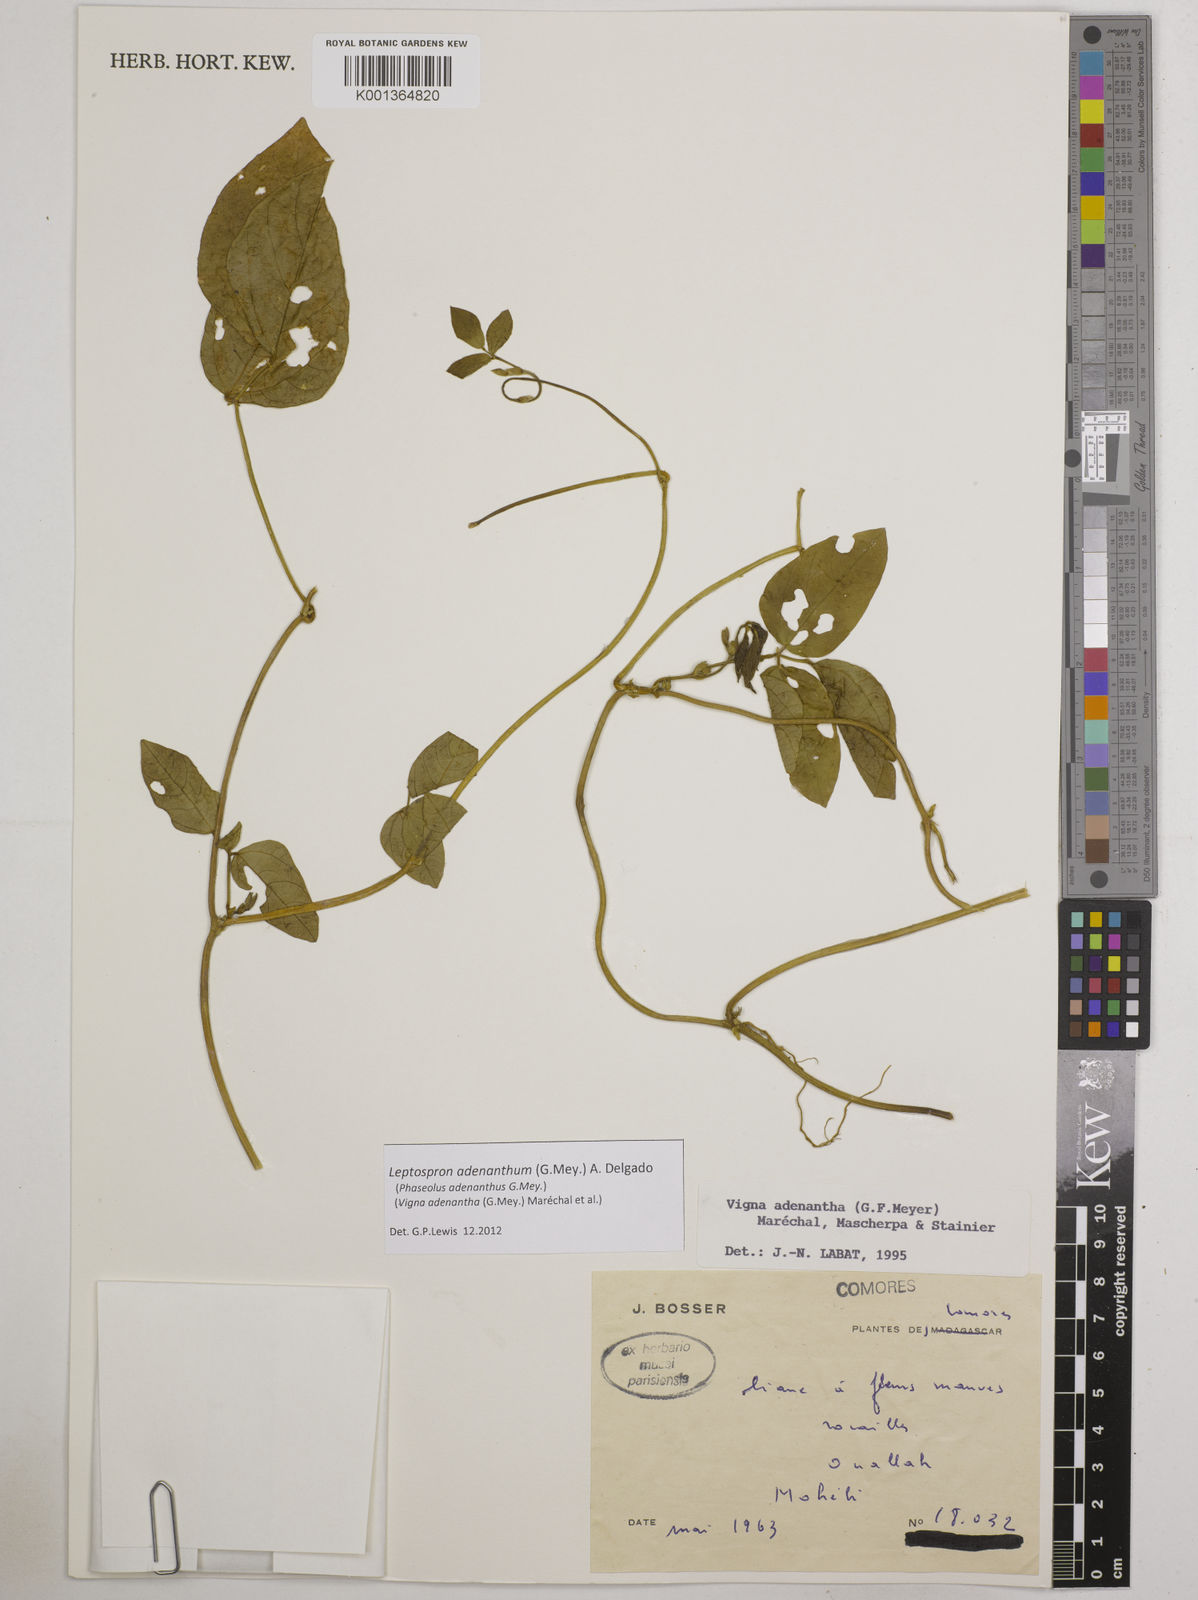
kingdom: Plantae
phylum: Tracheophyta
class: Magnoliopsida
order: Fabales
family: Fabaceae
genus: Leptospron
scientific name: Leptospron adenanthum
